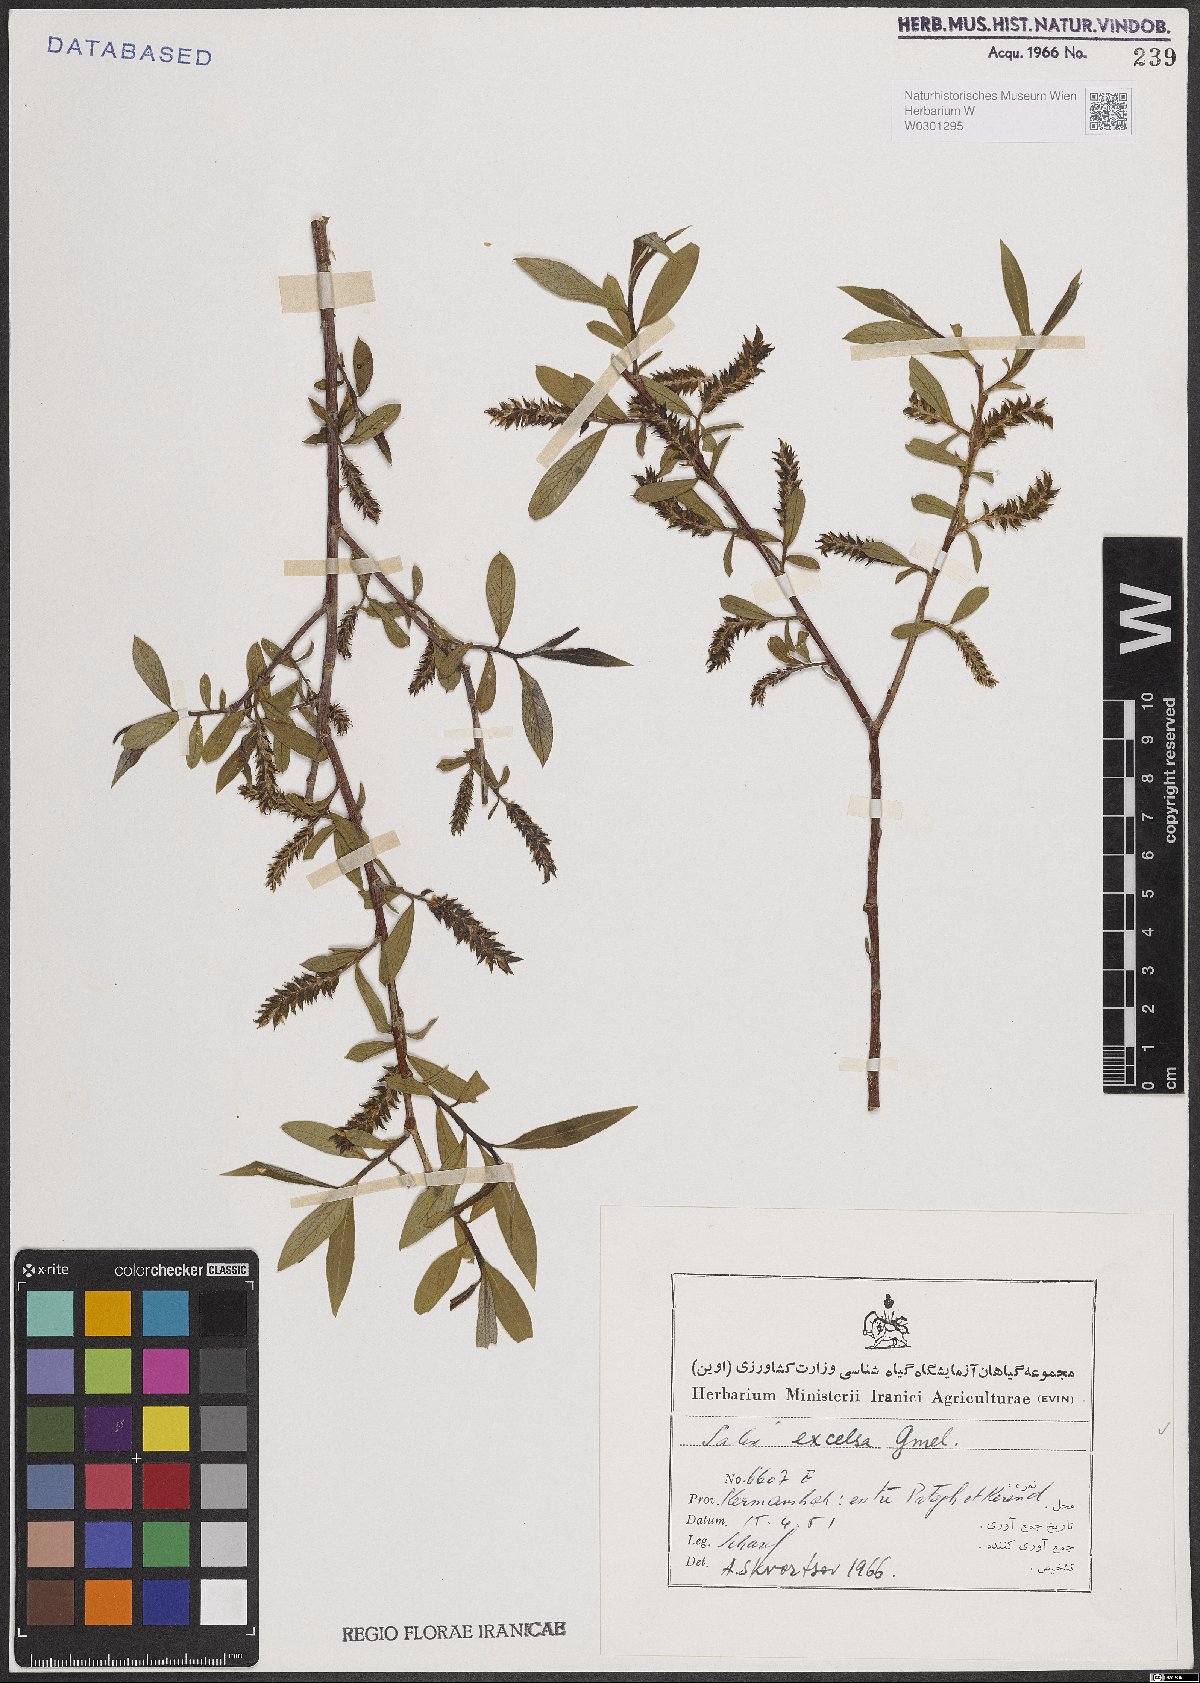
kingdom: Plantae
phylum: Tracheophyta
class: Magnoliopsida
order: Malpighiales
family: Salicaceae
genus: Salix
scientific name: Salix excelsa
